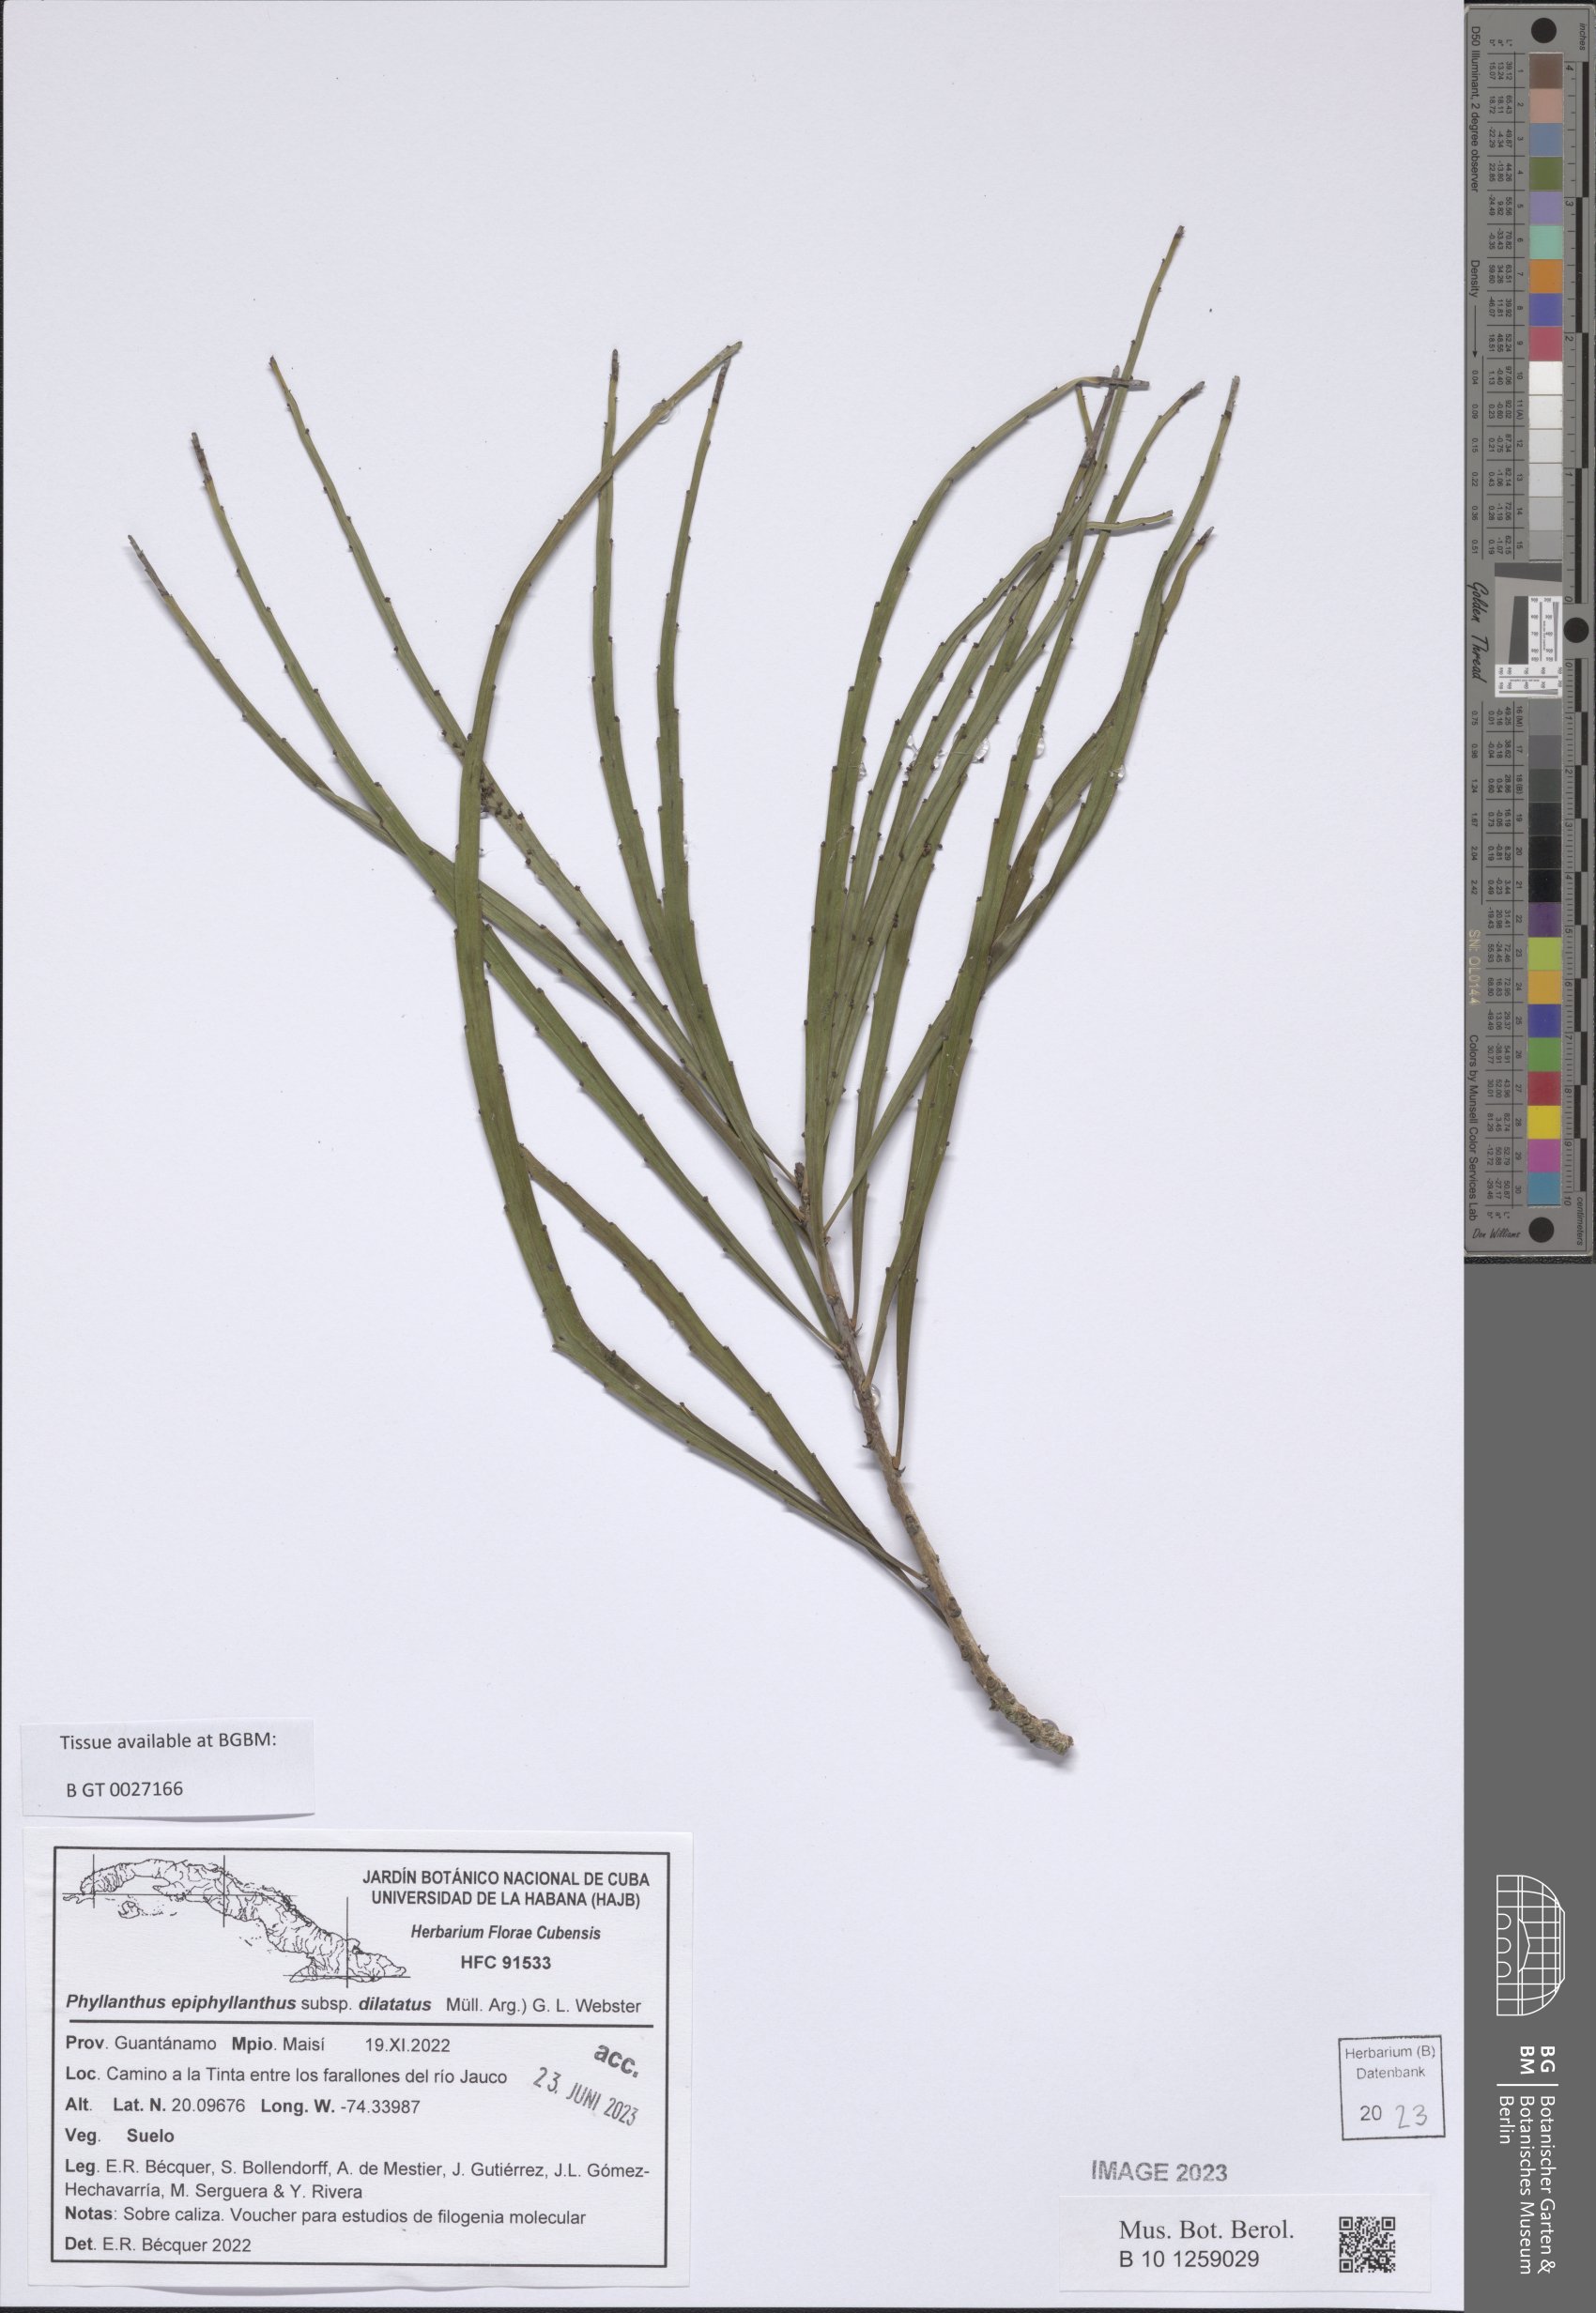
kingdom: Plantae
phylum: Tracheophyta
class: Magnoliopsida
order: Malpighiales
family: Phyllanthaceae
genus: Phyllanthus
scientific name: Phyllanthus epiphyllanthus
